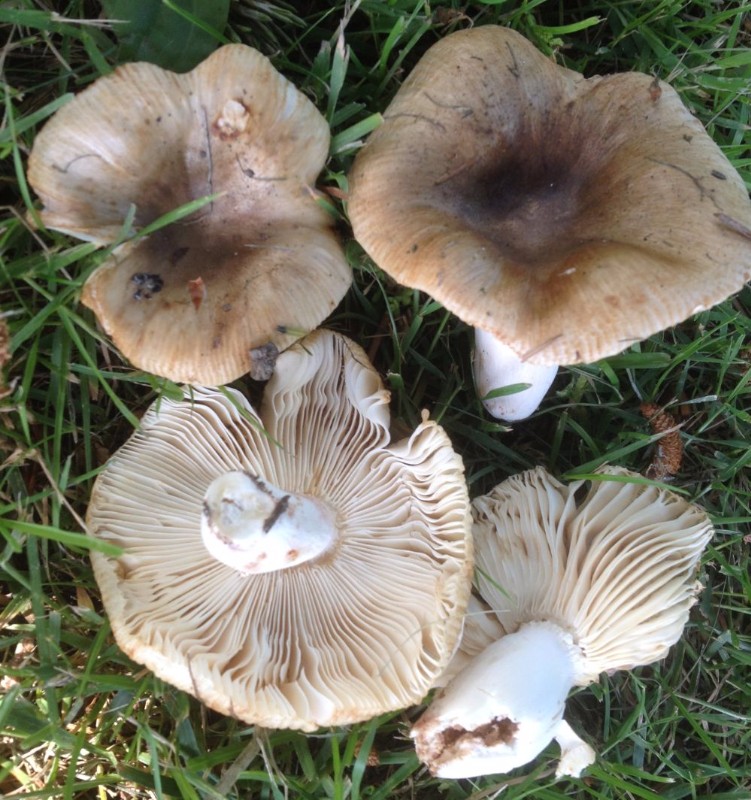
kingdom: Fungi
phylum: Basidiomycota
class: Agaricomycetes
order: Russulales
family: Russulaceae
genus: Russula
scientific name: Russula cessans
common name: fyrre-skørhat
